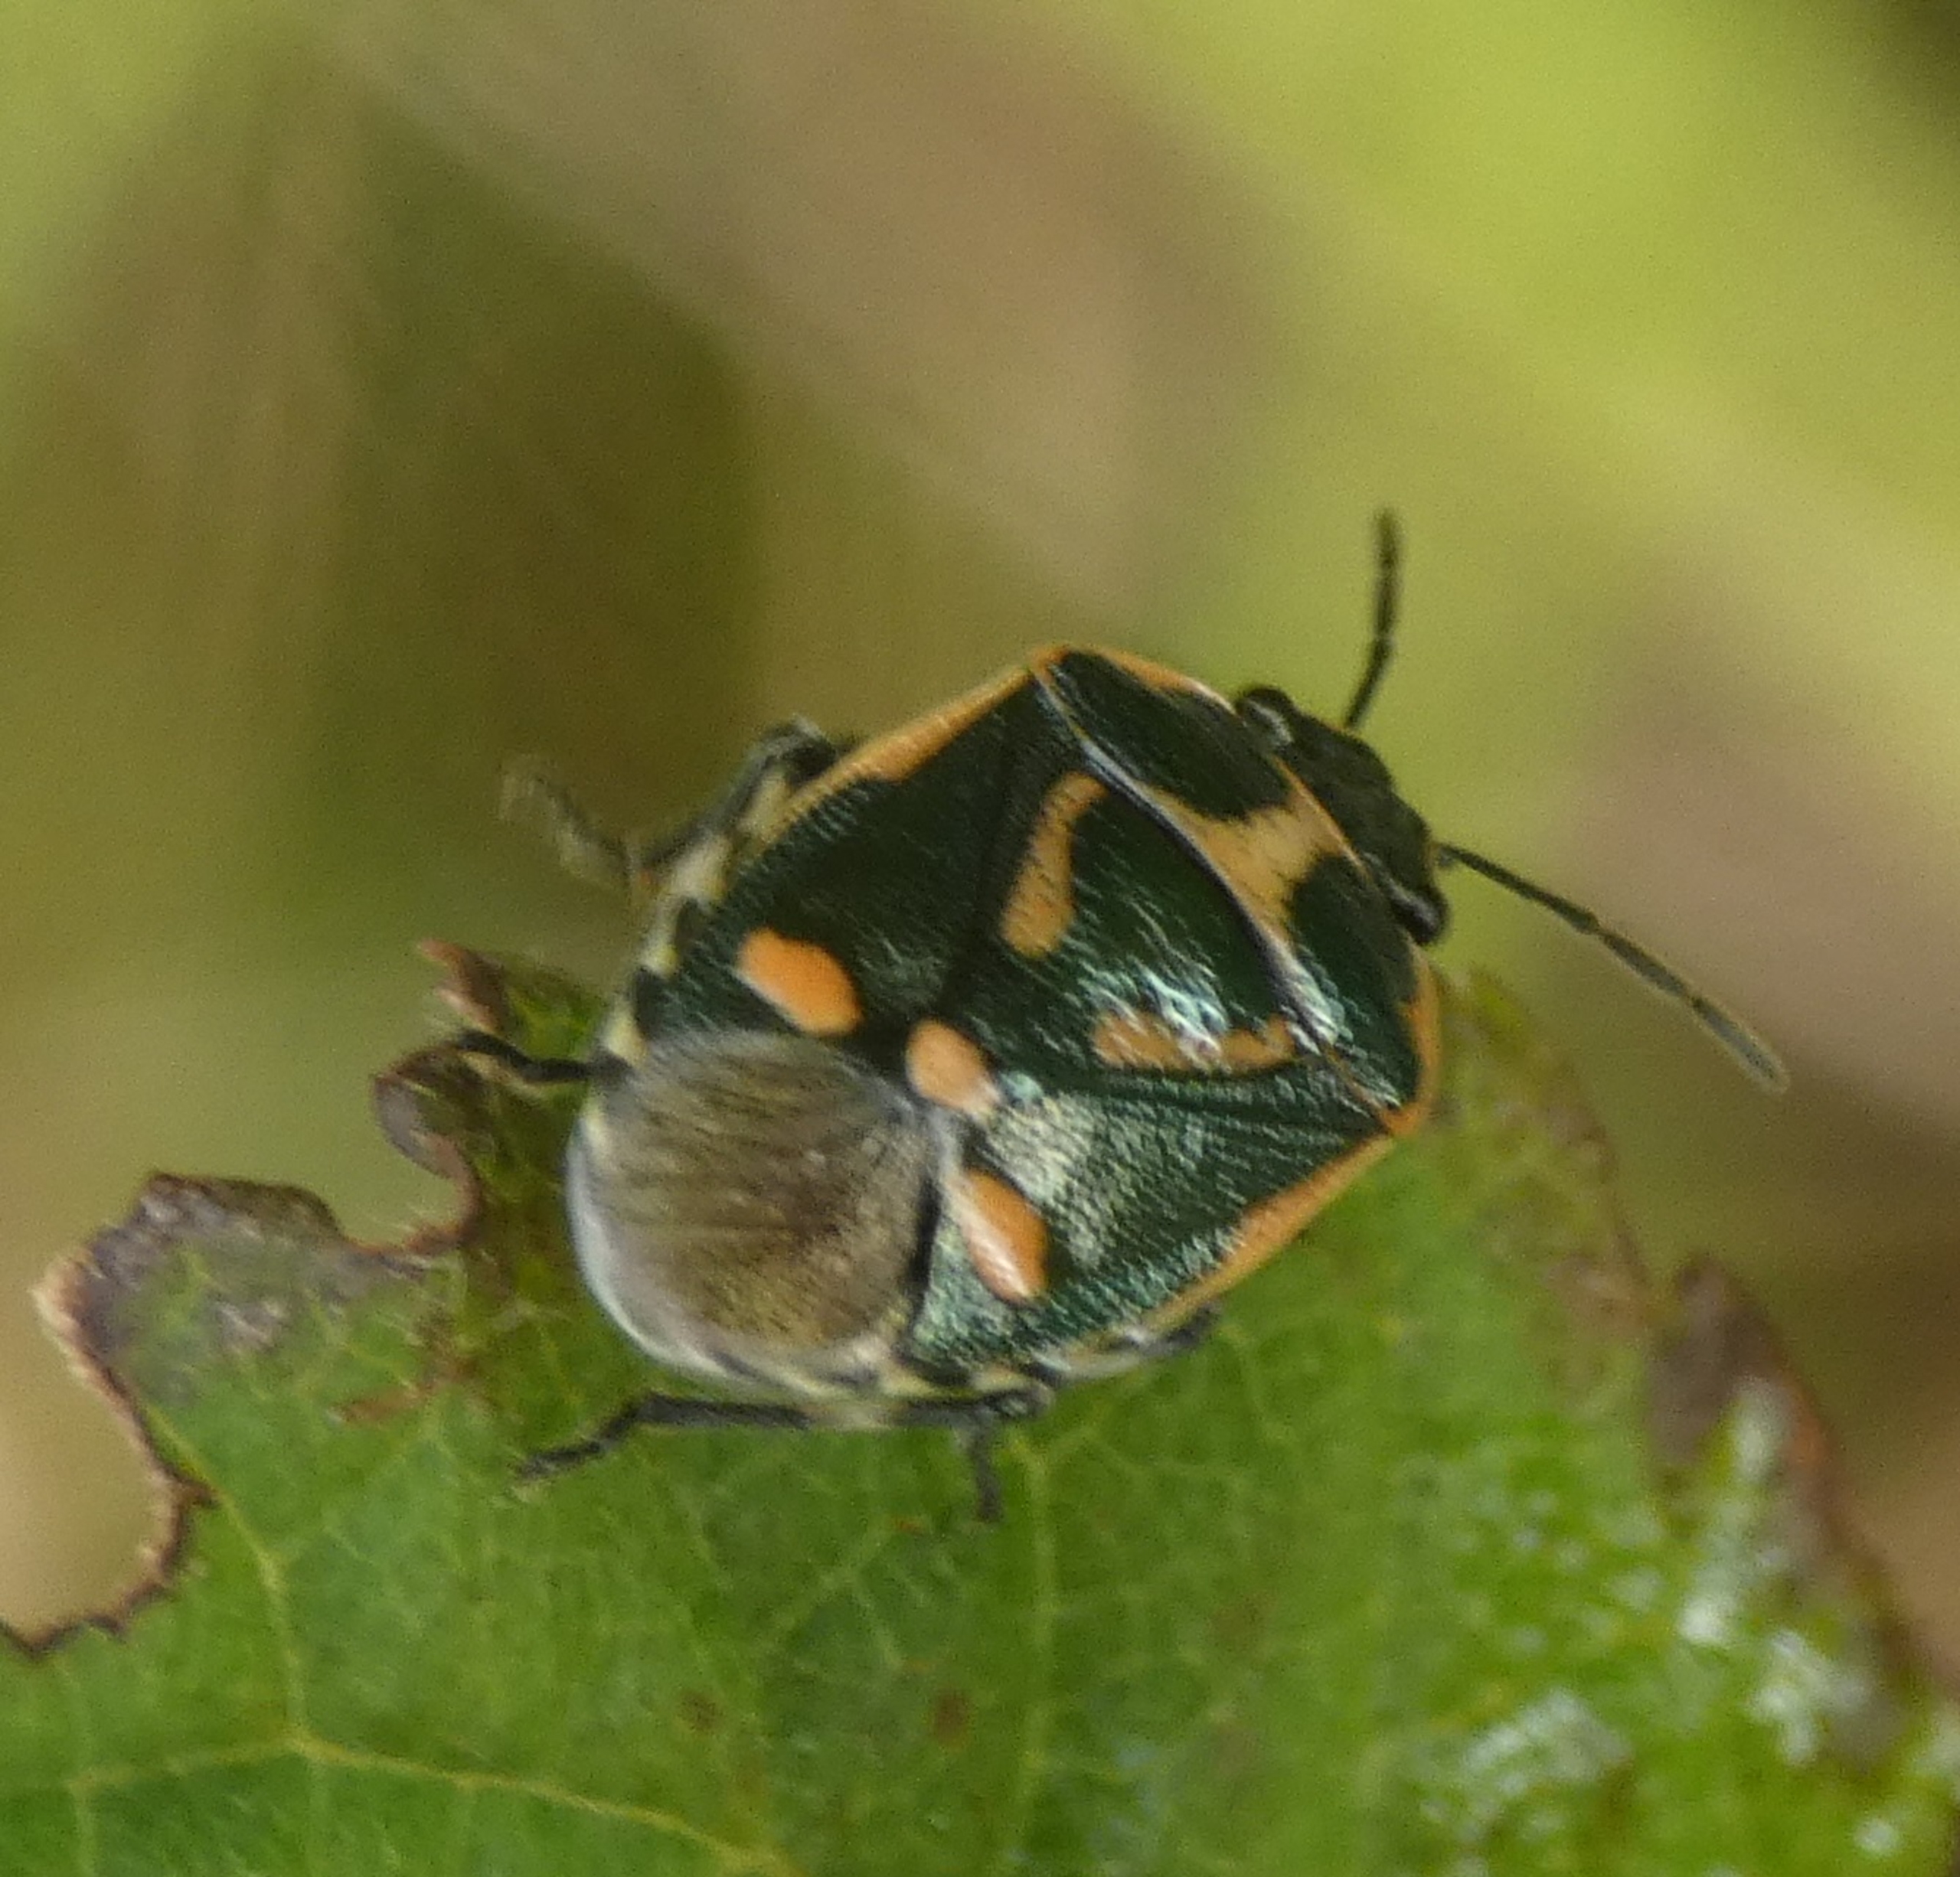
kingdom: Animalia
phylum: Arthropoda
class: Insecta
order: Hemiptera
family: Pentatomidae
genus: Eurydema
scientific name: Eurydema oleracea
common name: Almindelig kåltæge
